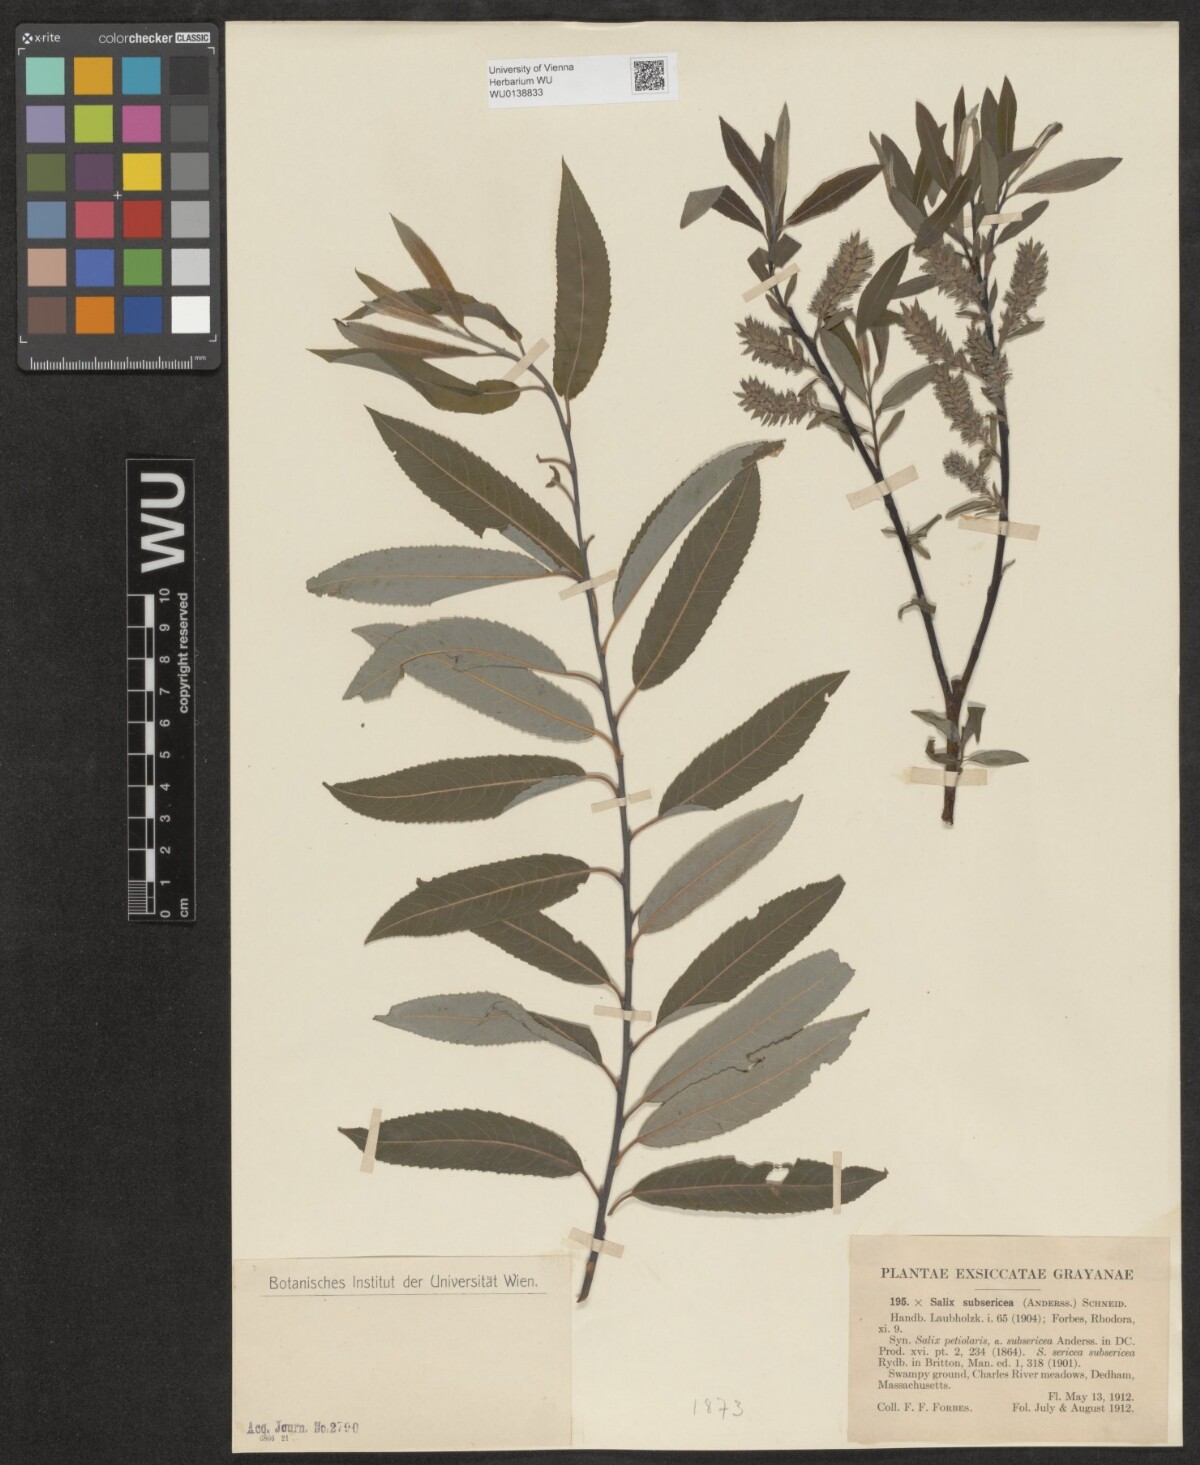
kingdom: Plantae
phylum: Tracheophyta
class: Magnoliopsida
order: Malpighiales
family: Salicaceae
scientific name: Salicaceae
